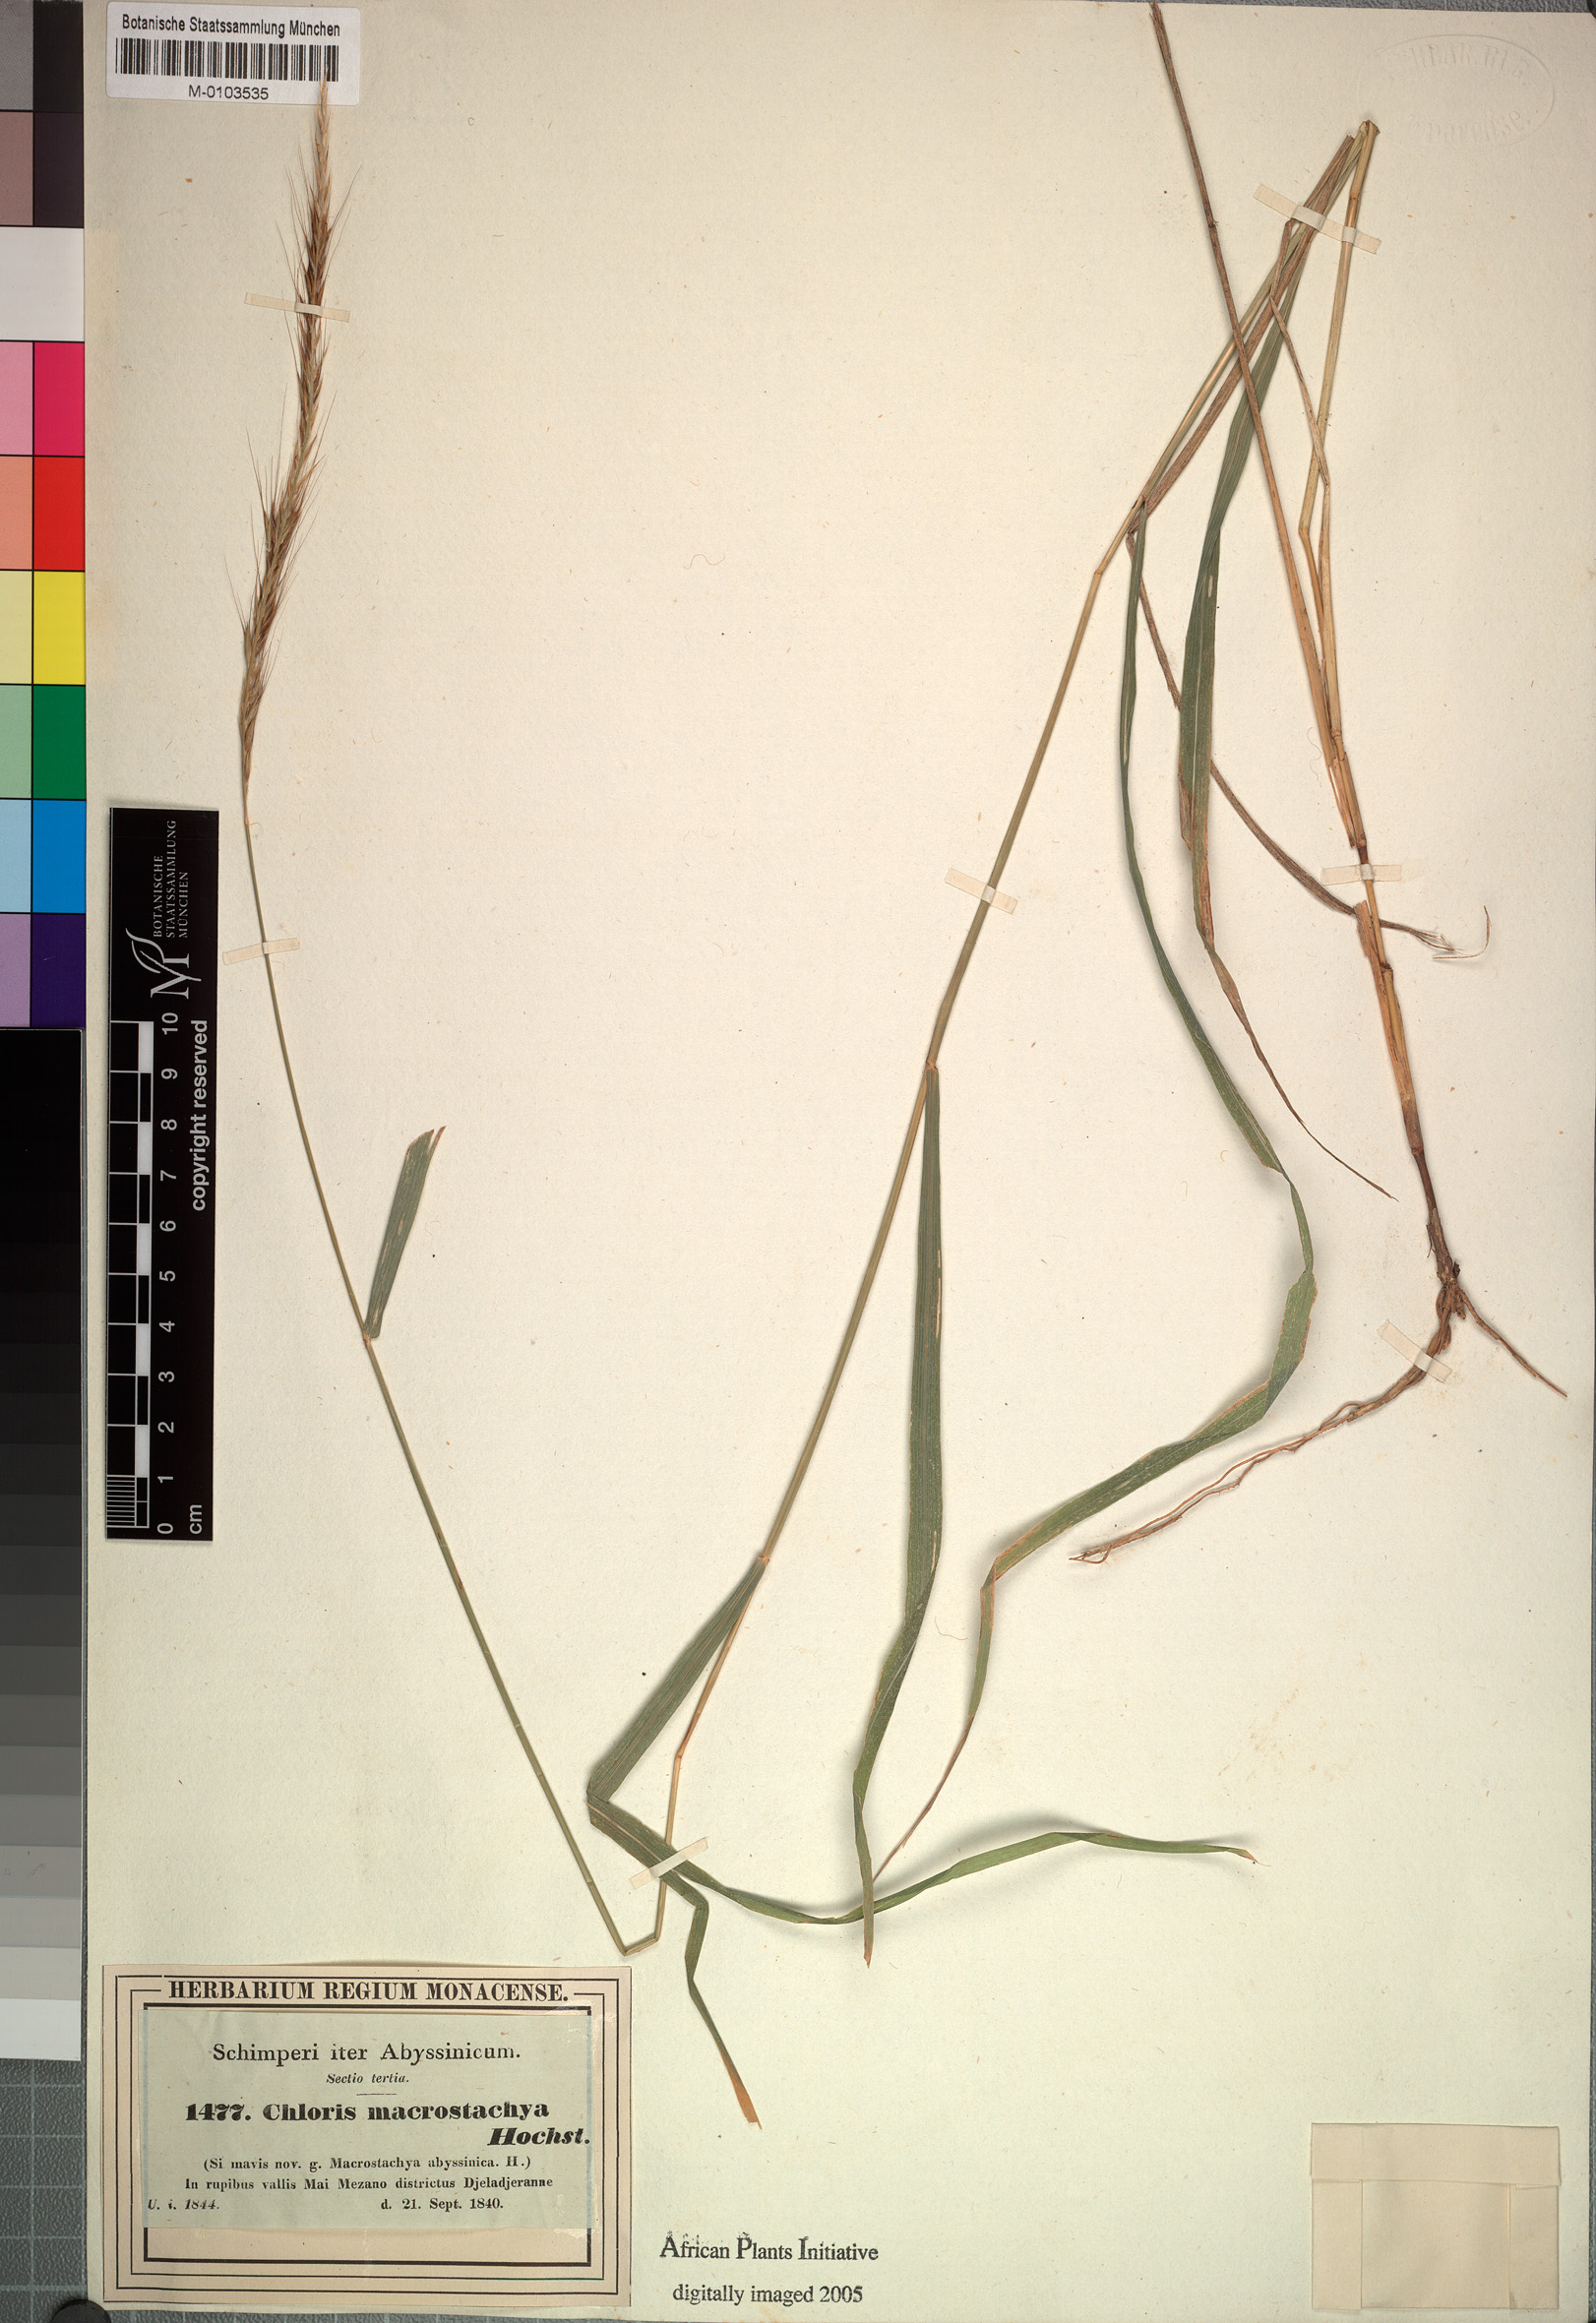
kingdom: Plantae
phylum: Tracheophyta
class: Liliopsida
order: Poales
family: Poaceae
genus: Enteropogon
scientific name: Enteropogon macrostachyus
